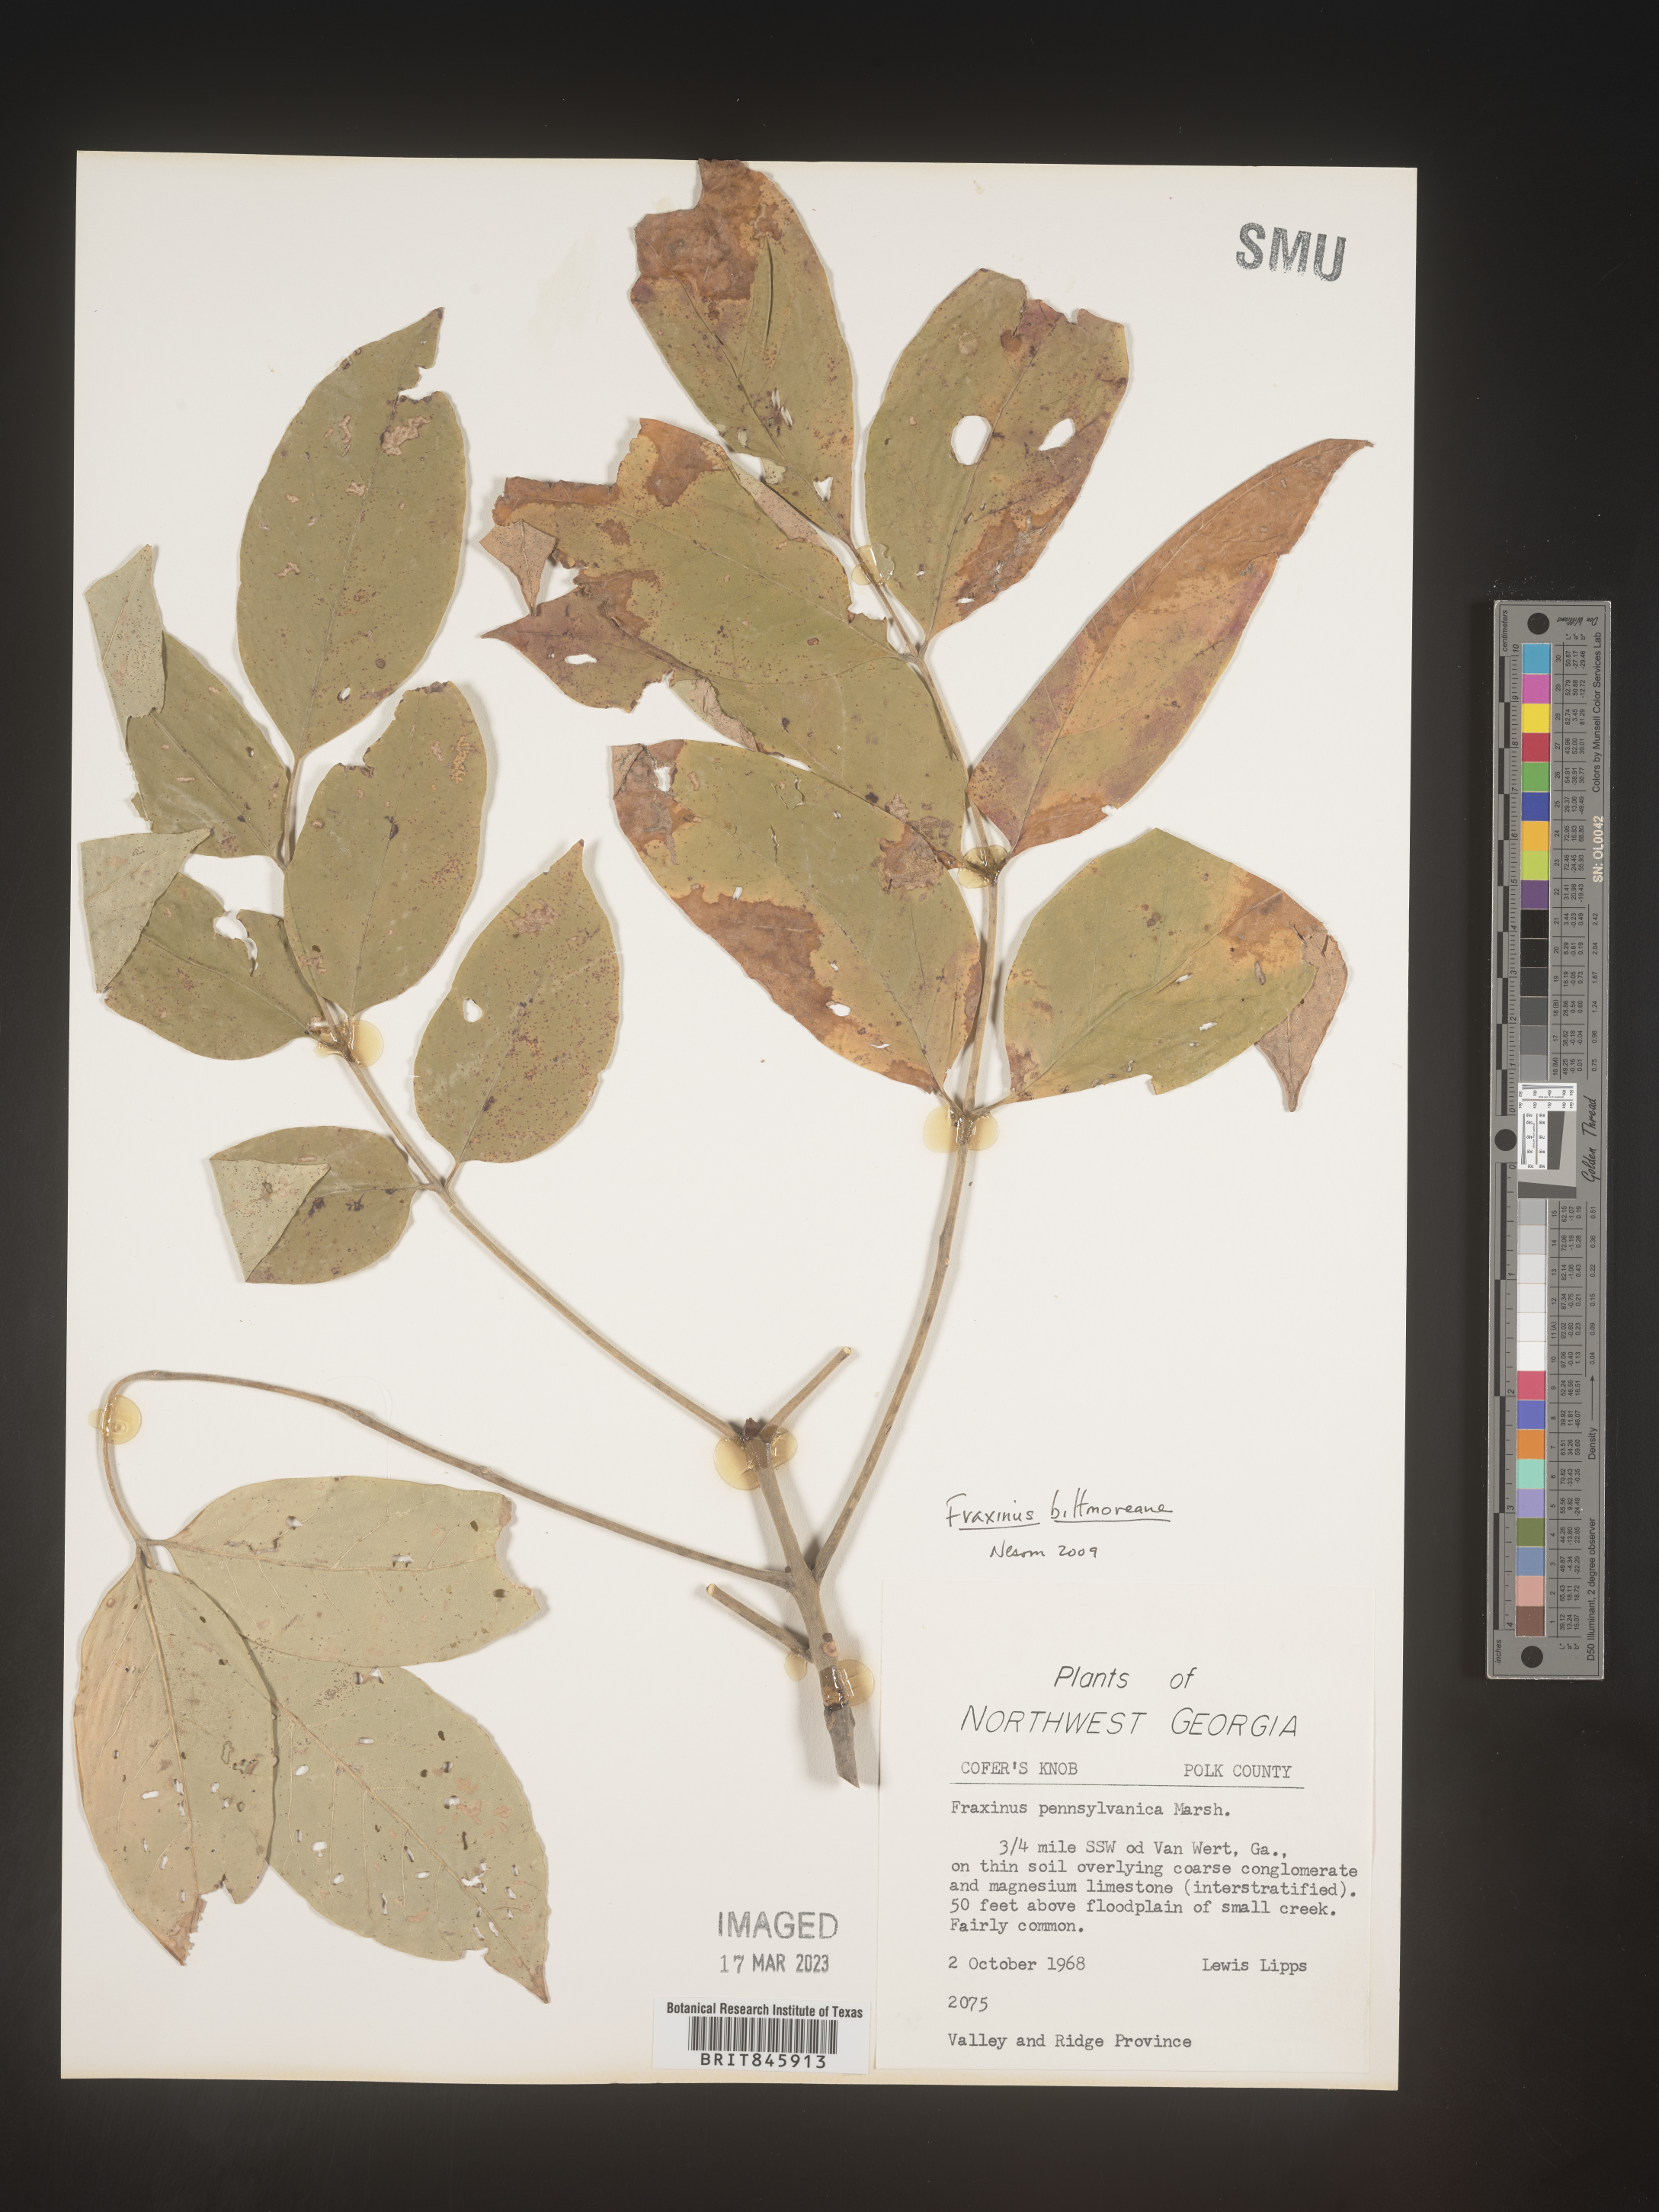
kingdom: Plantae
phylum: Tracheophyta
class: Magnoliopsida
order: Lamiales
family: Oleaceae
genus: Fraxinus
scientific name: Fraxinus americana
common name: White ash
